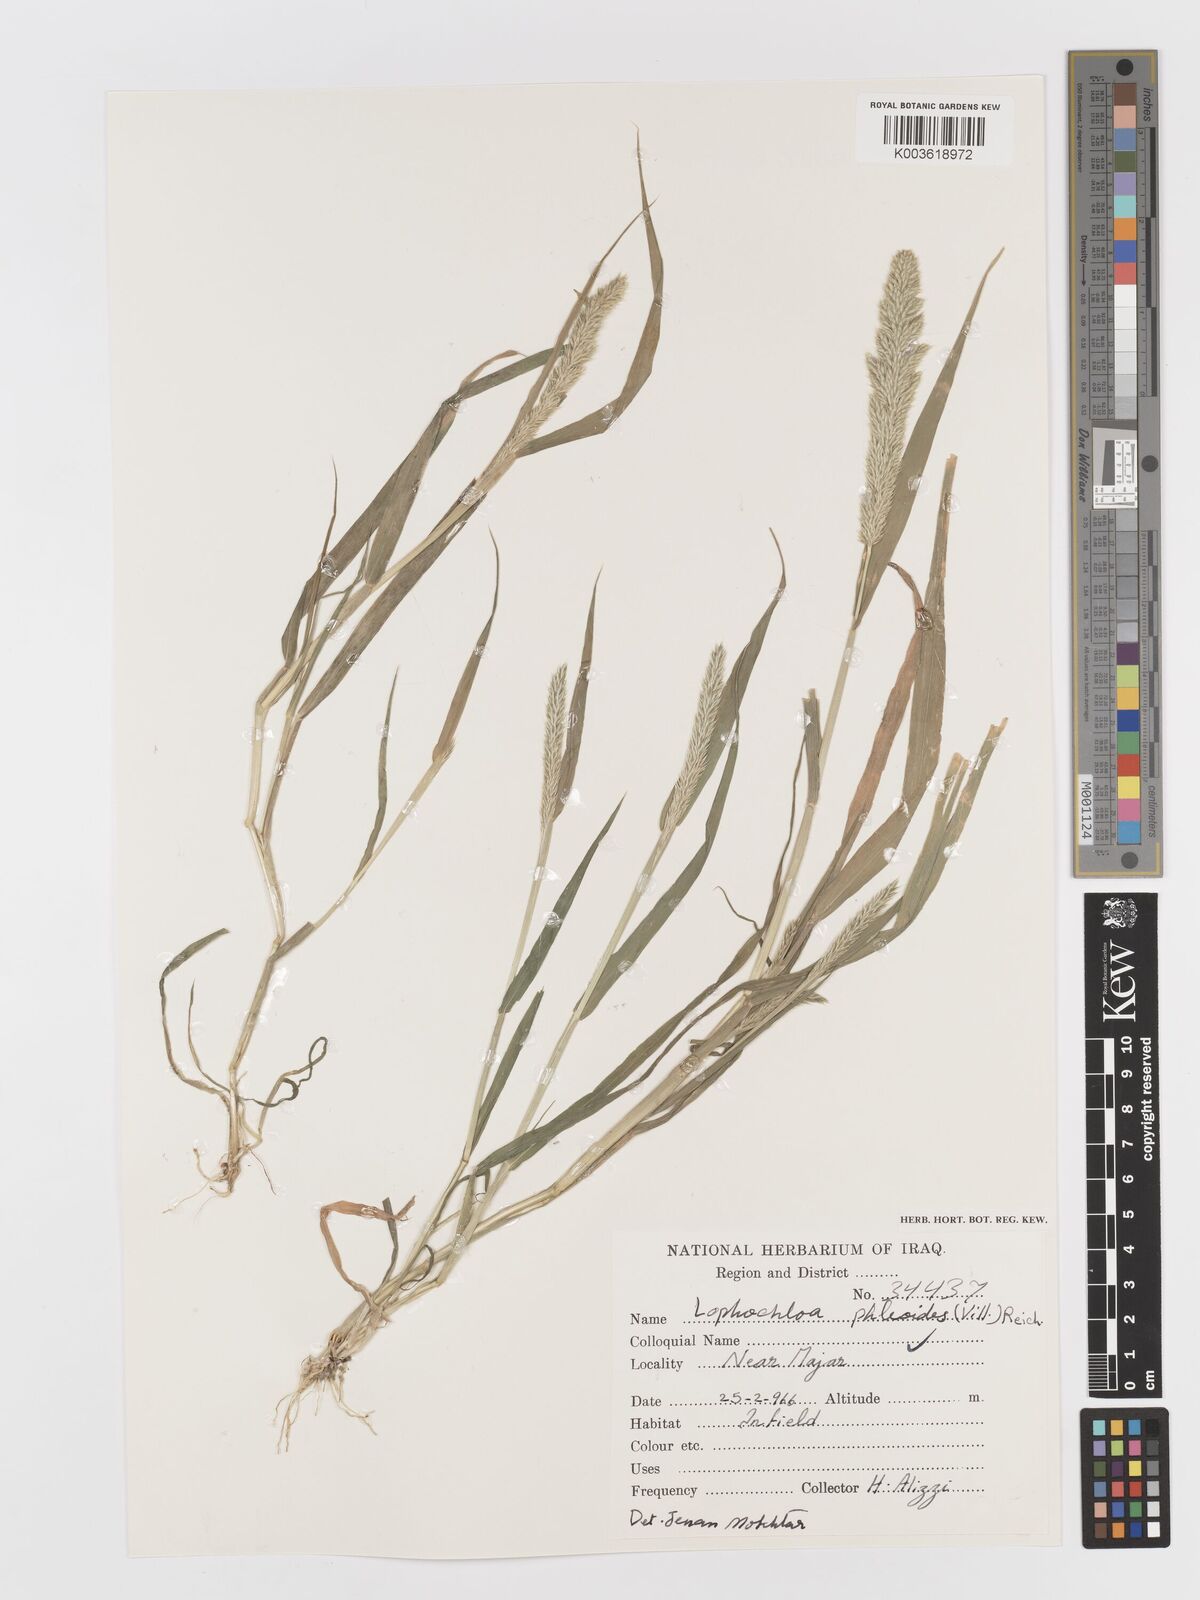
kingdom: Plantae
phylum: Tracheophyta
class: Liliopsida
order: Poales
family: Poaceae
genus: Rostraria
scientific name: Rostraria cristata
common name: Mediterranean hair-grass
